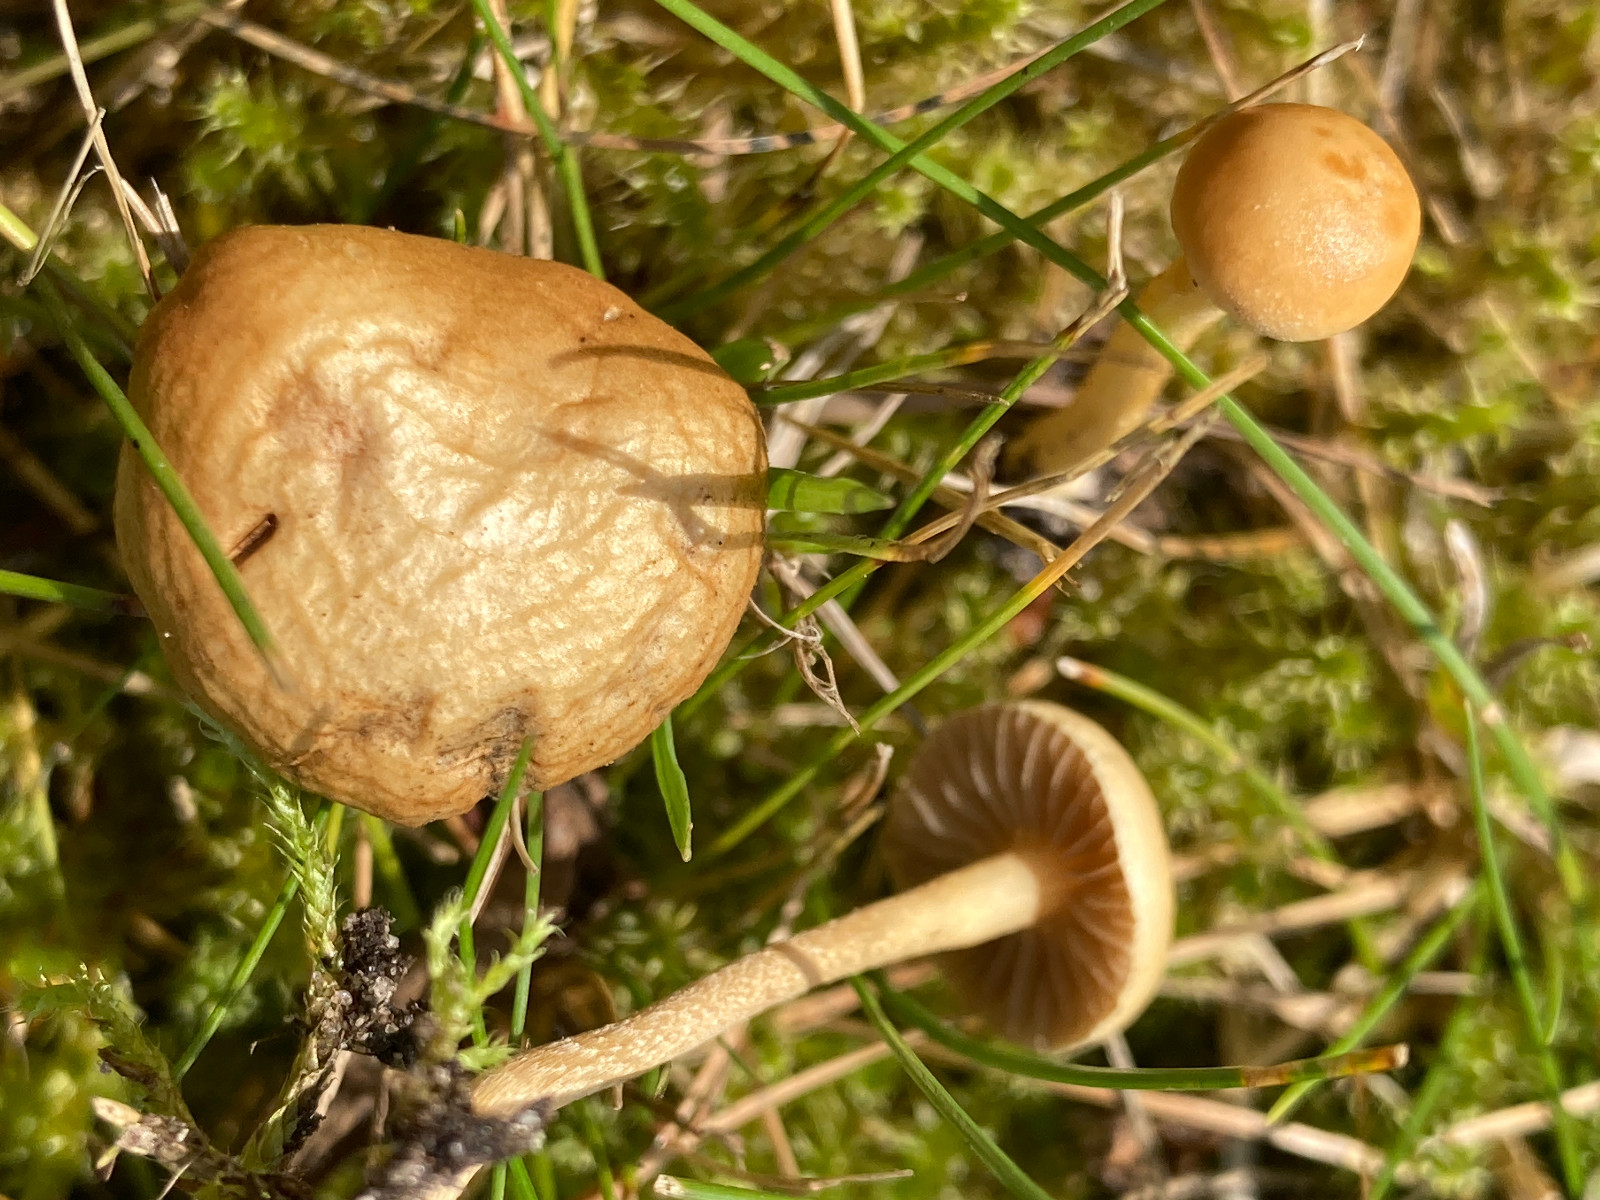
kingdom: Fungi
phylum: Basidiomycota
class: Agaricomycetes
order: Agaricales
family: Strophariaceae
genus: Agrocybe
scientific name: Agrocybe pediades
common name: almindelig agerhat
